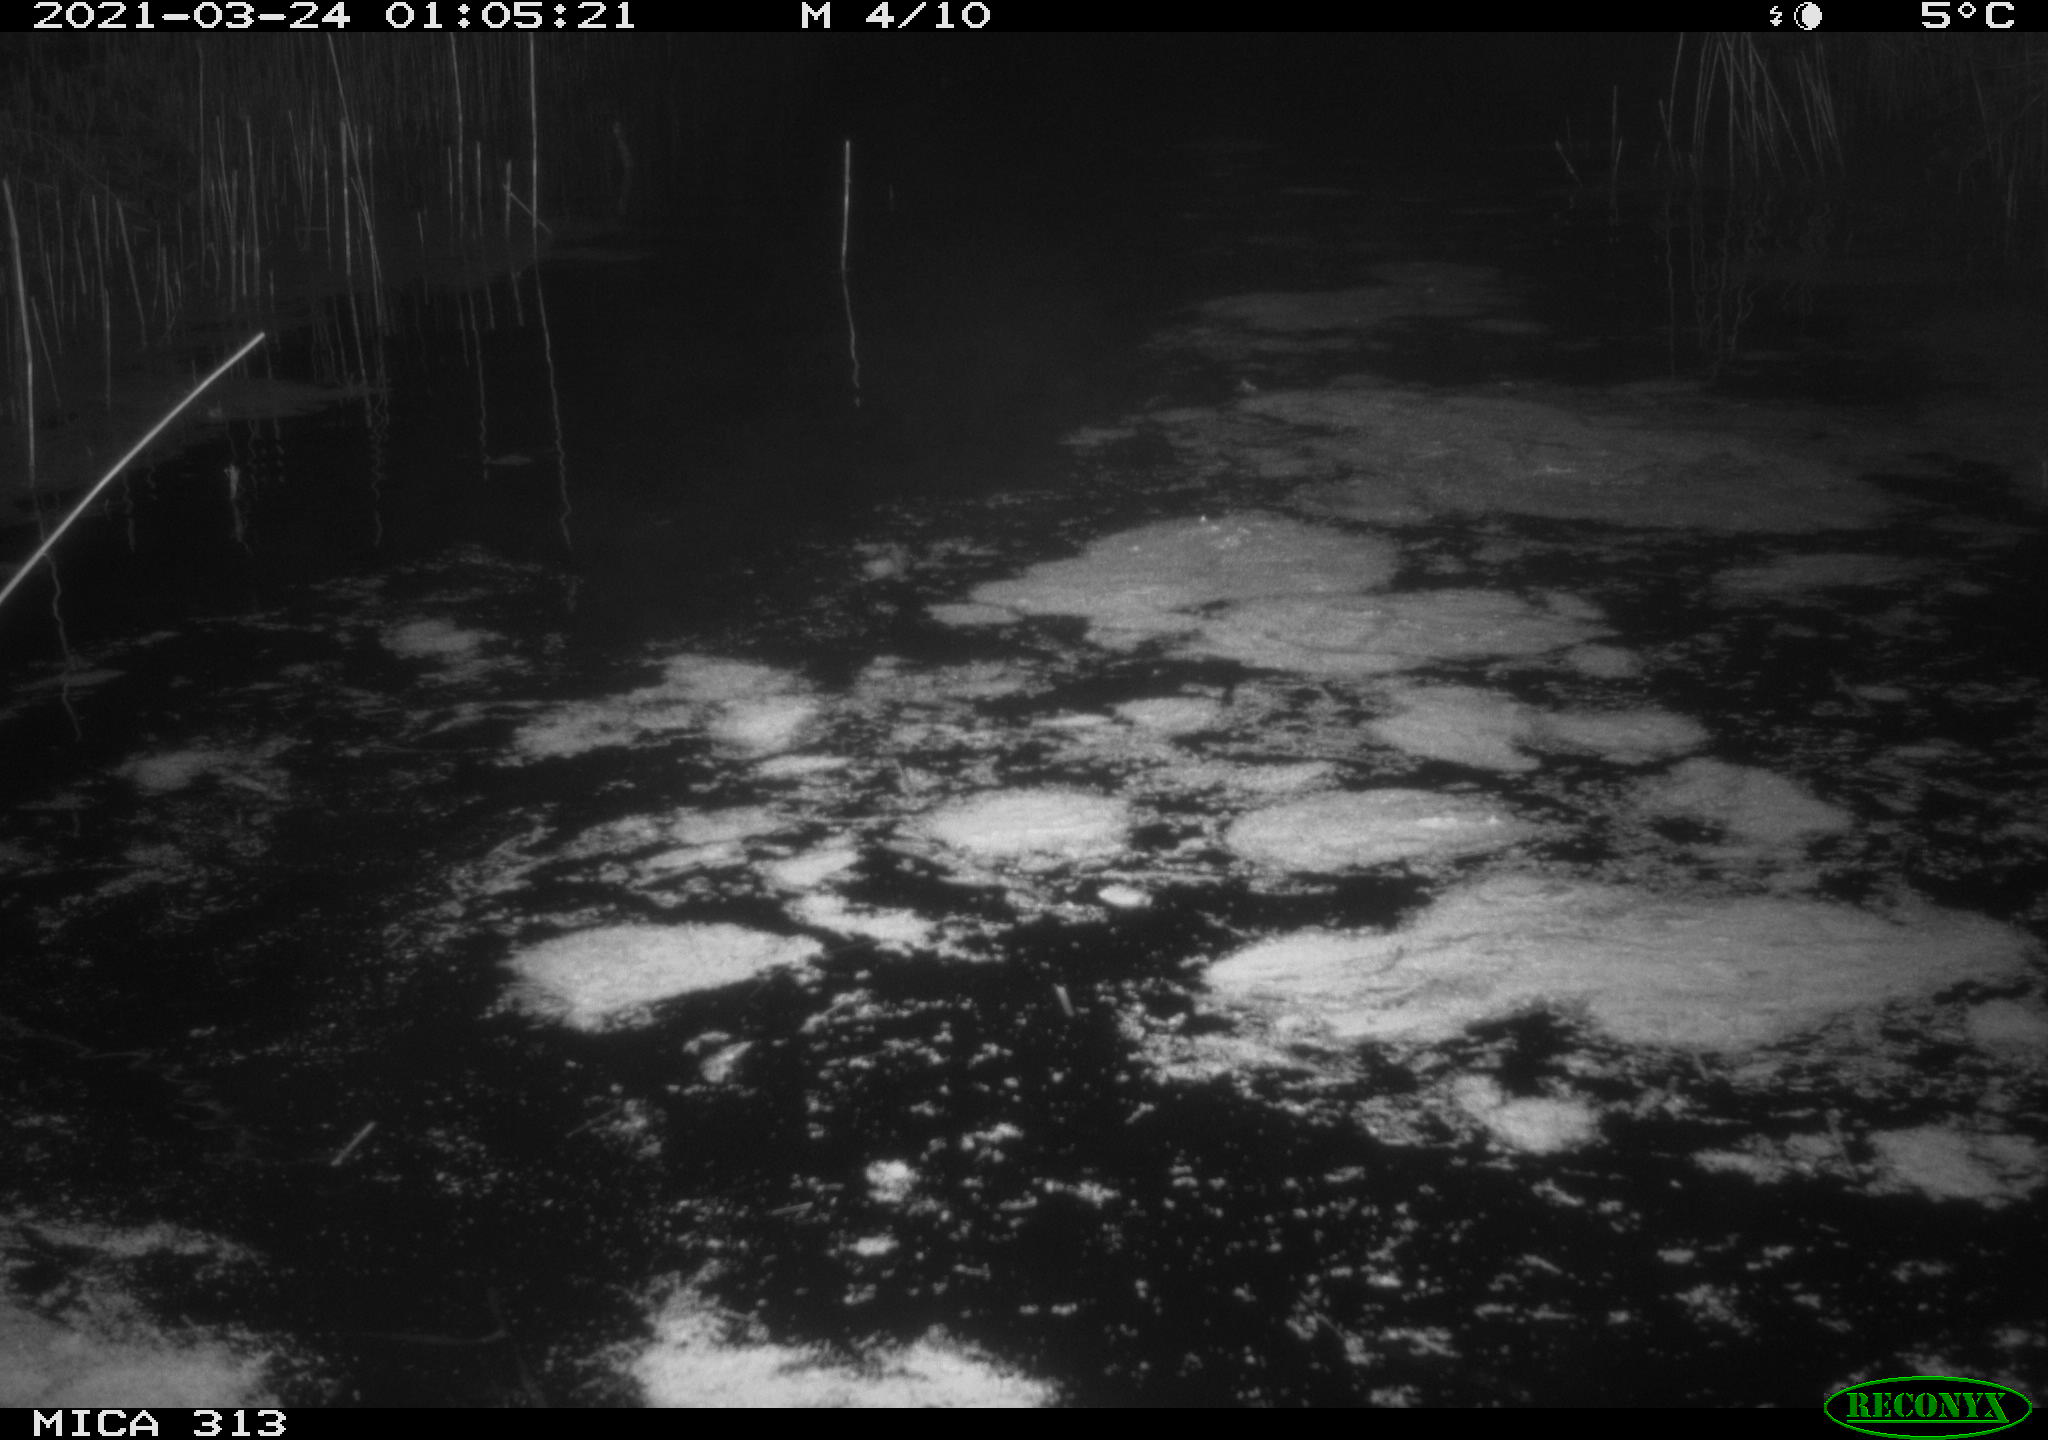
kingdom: Animalia
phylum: Chordata
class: Aves
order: Anseriformes
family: Anatidae
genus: Anas
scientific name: Anas platyrhynchos
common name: Mallard
